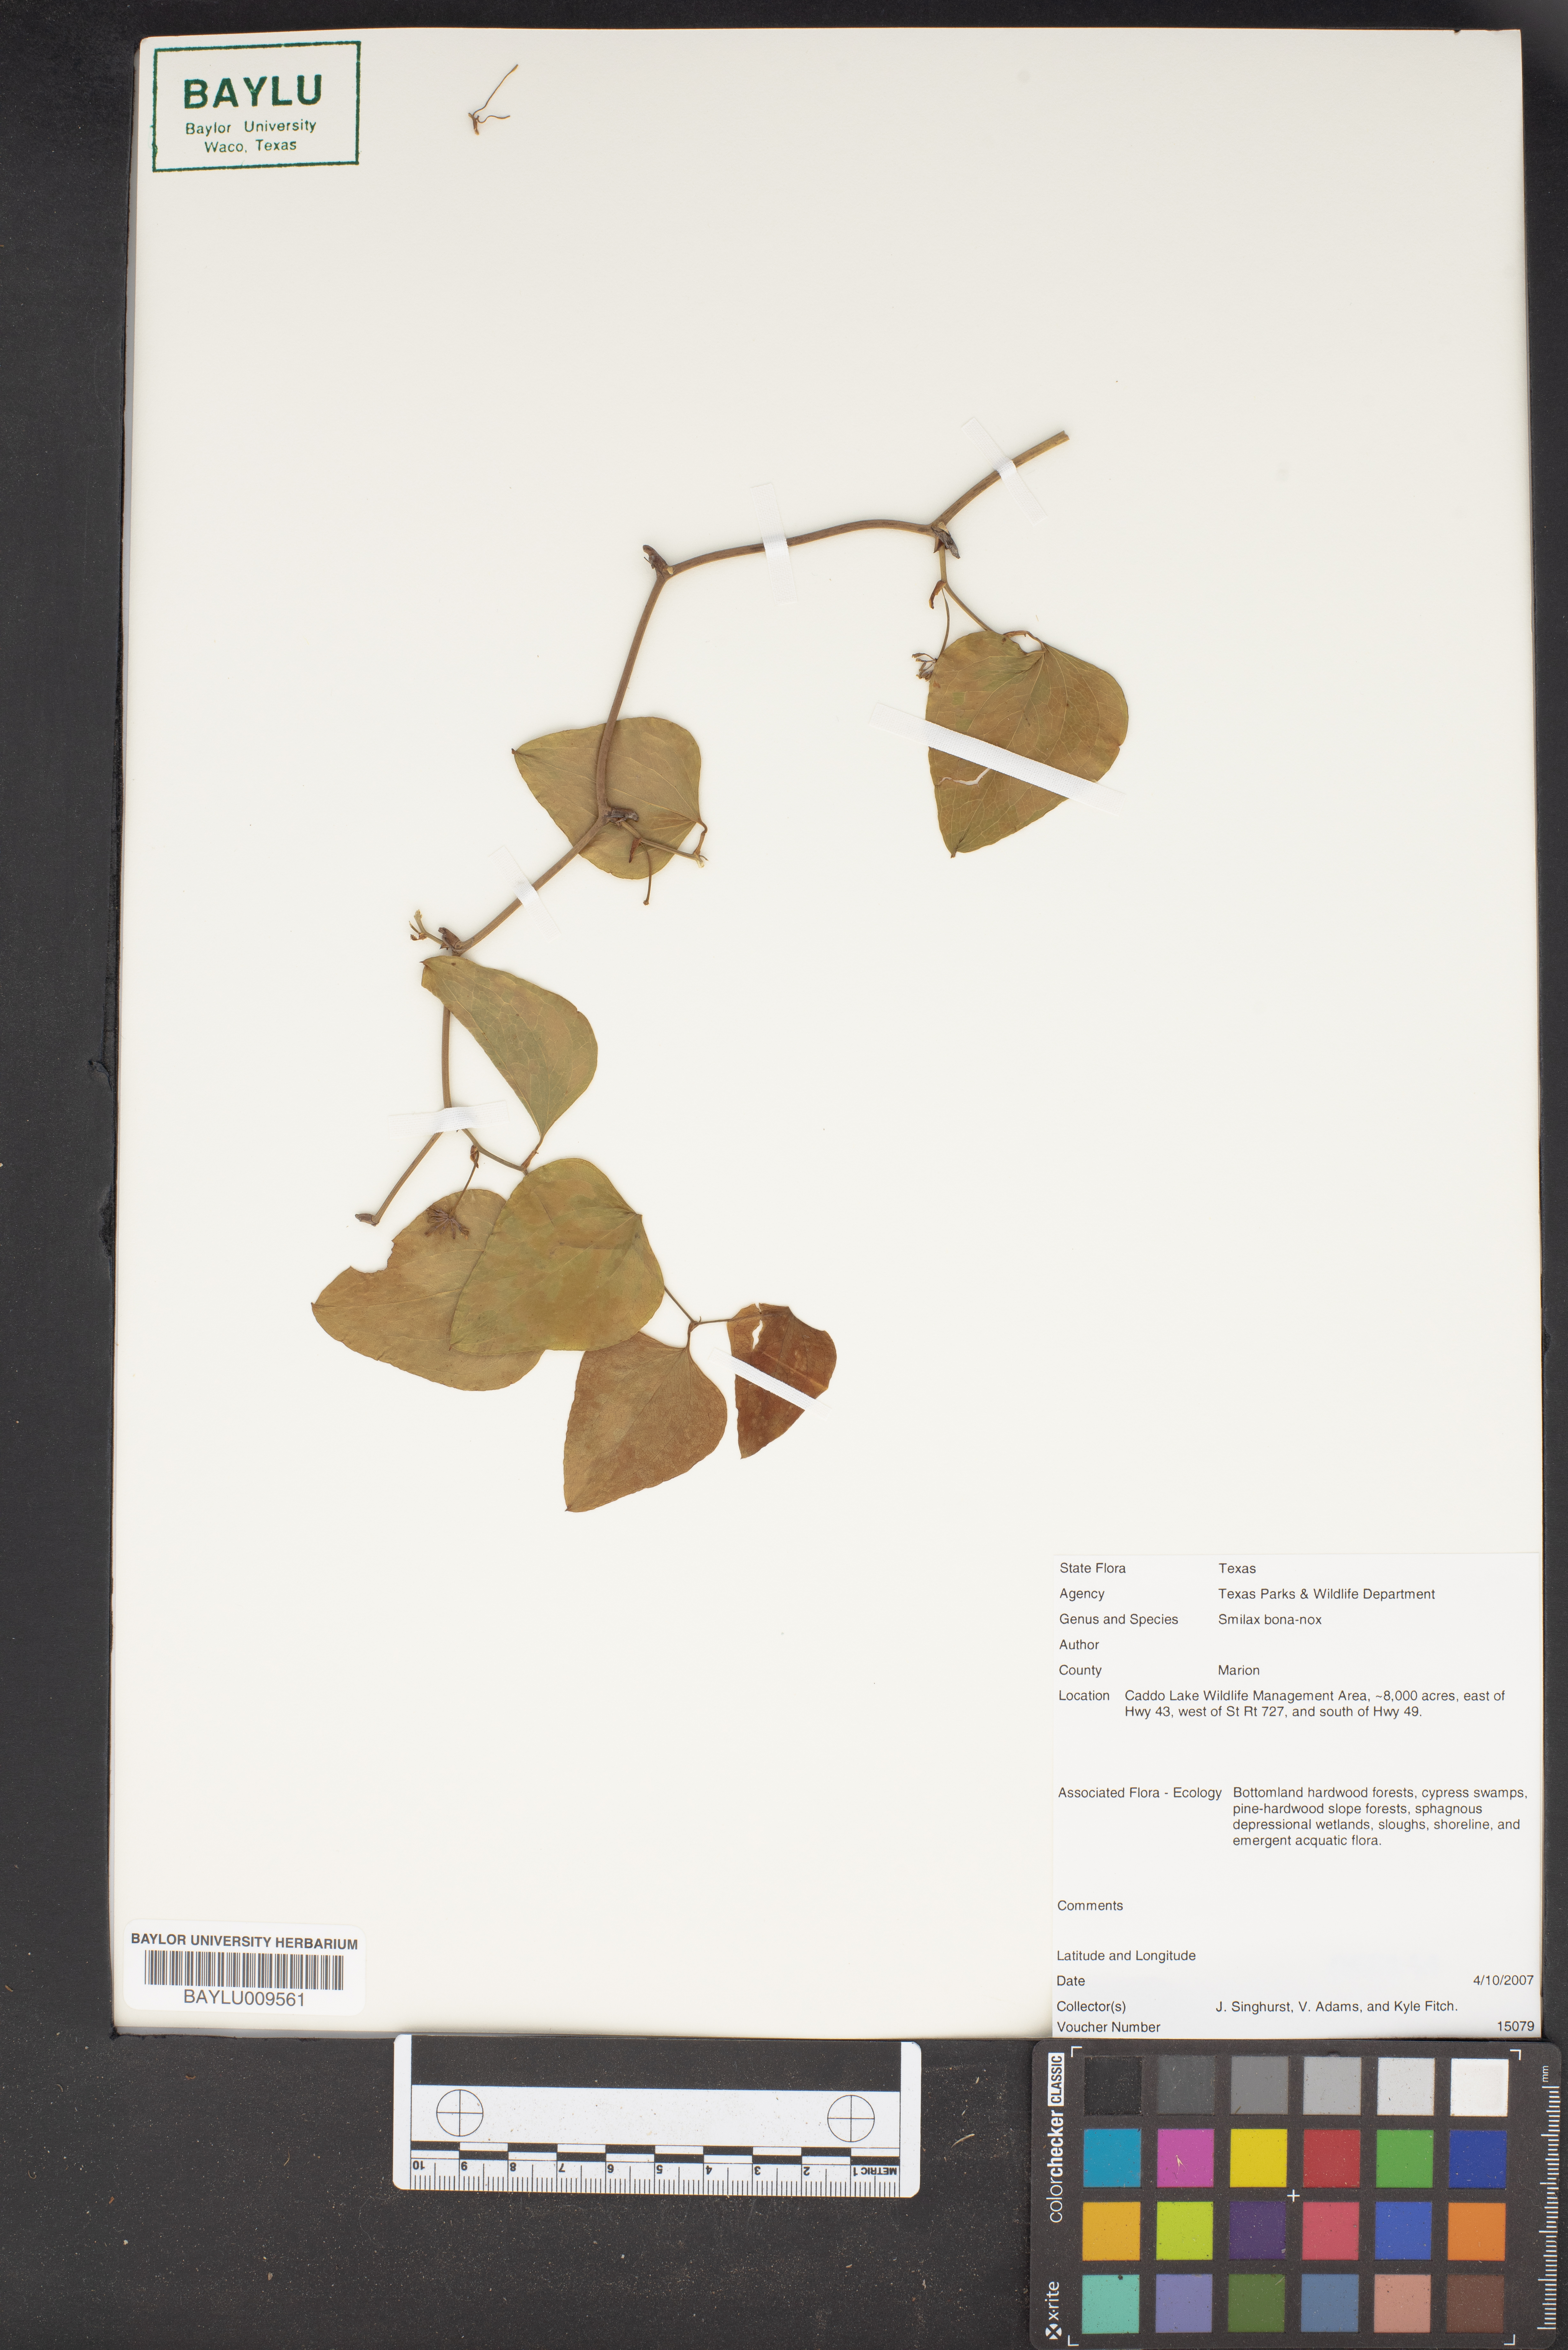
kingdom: Plantae
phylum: Tracheophyta
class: Liliopsida
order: Liliales
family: Smilacaceae
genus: Smilax
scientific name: Smilax bona-nox
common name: Catbrier
